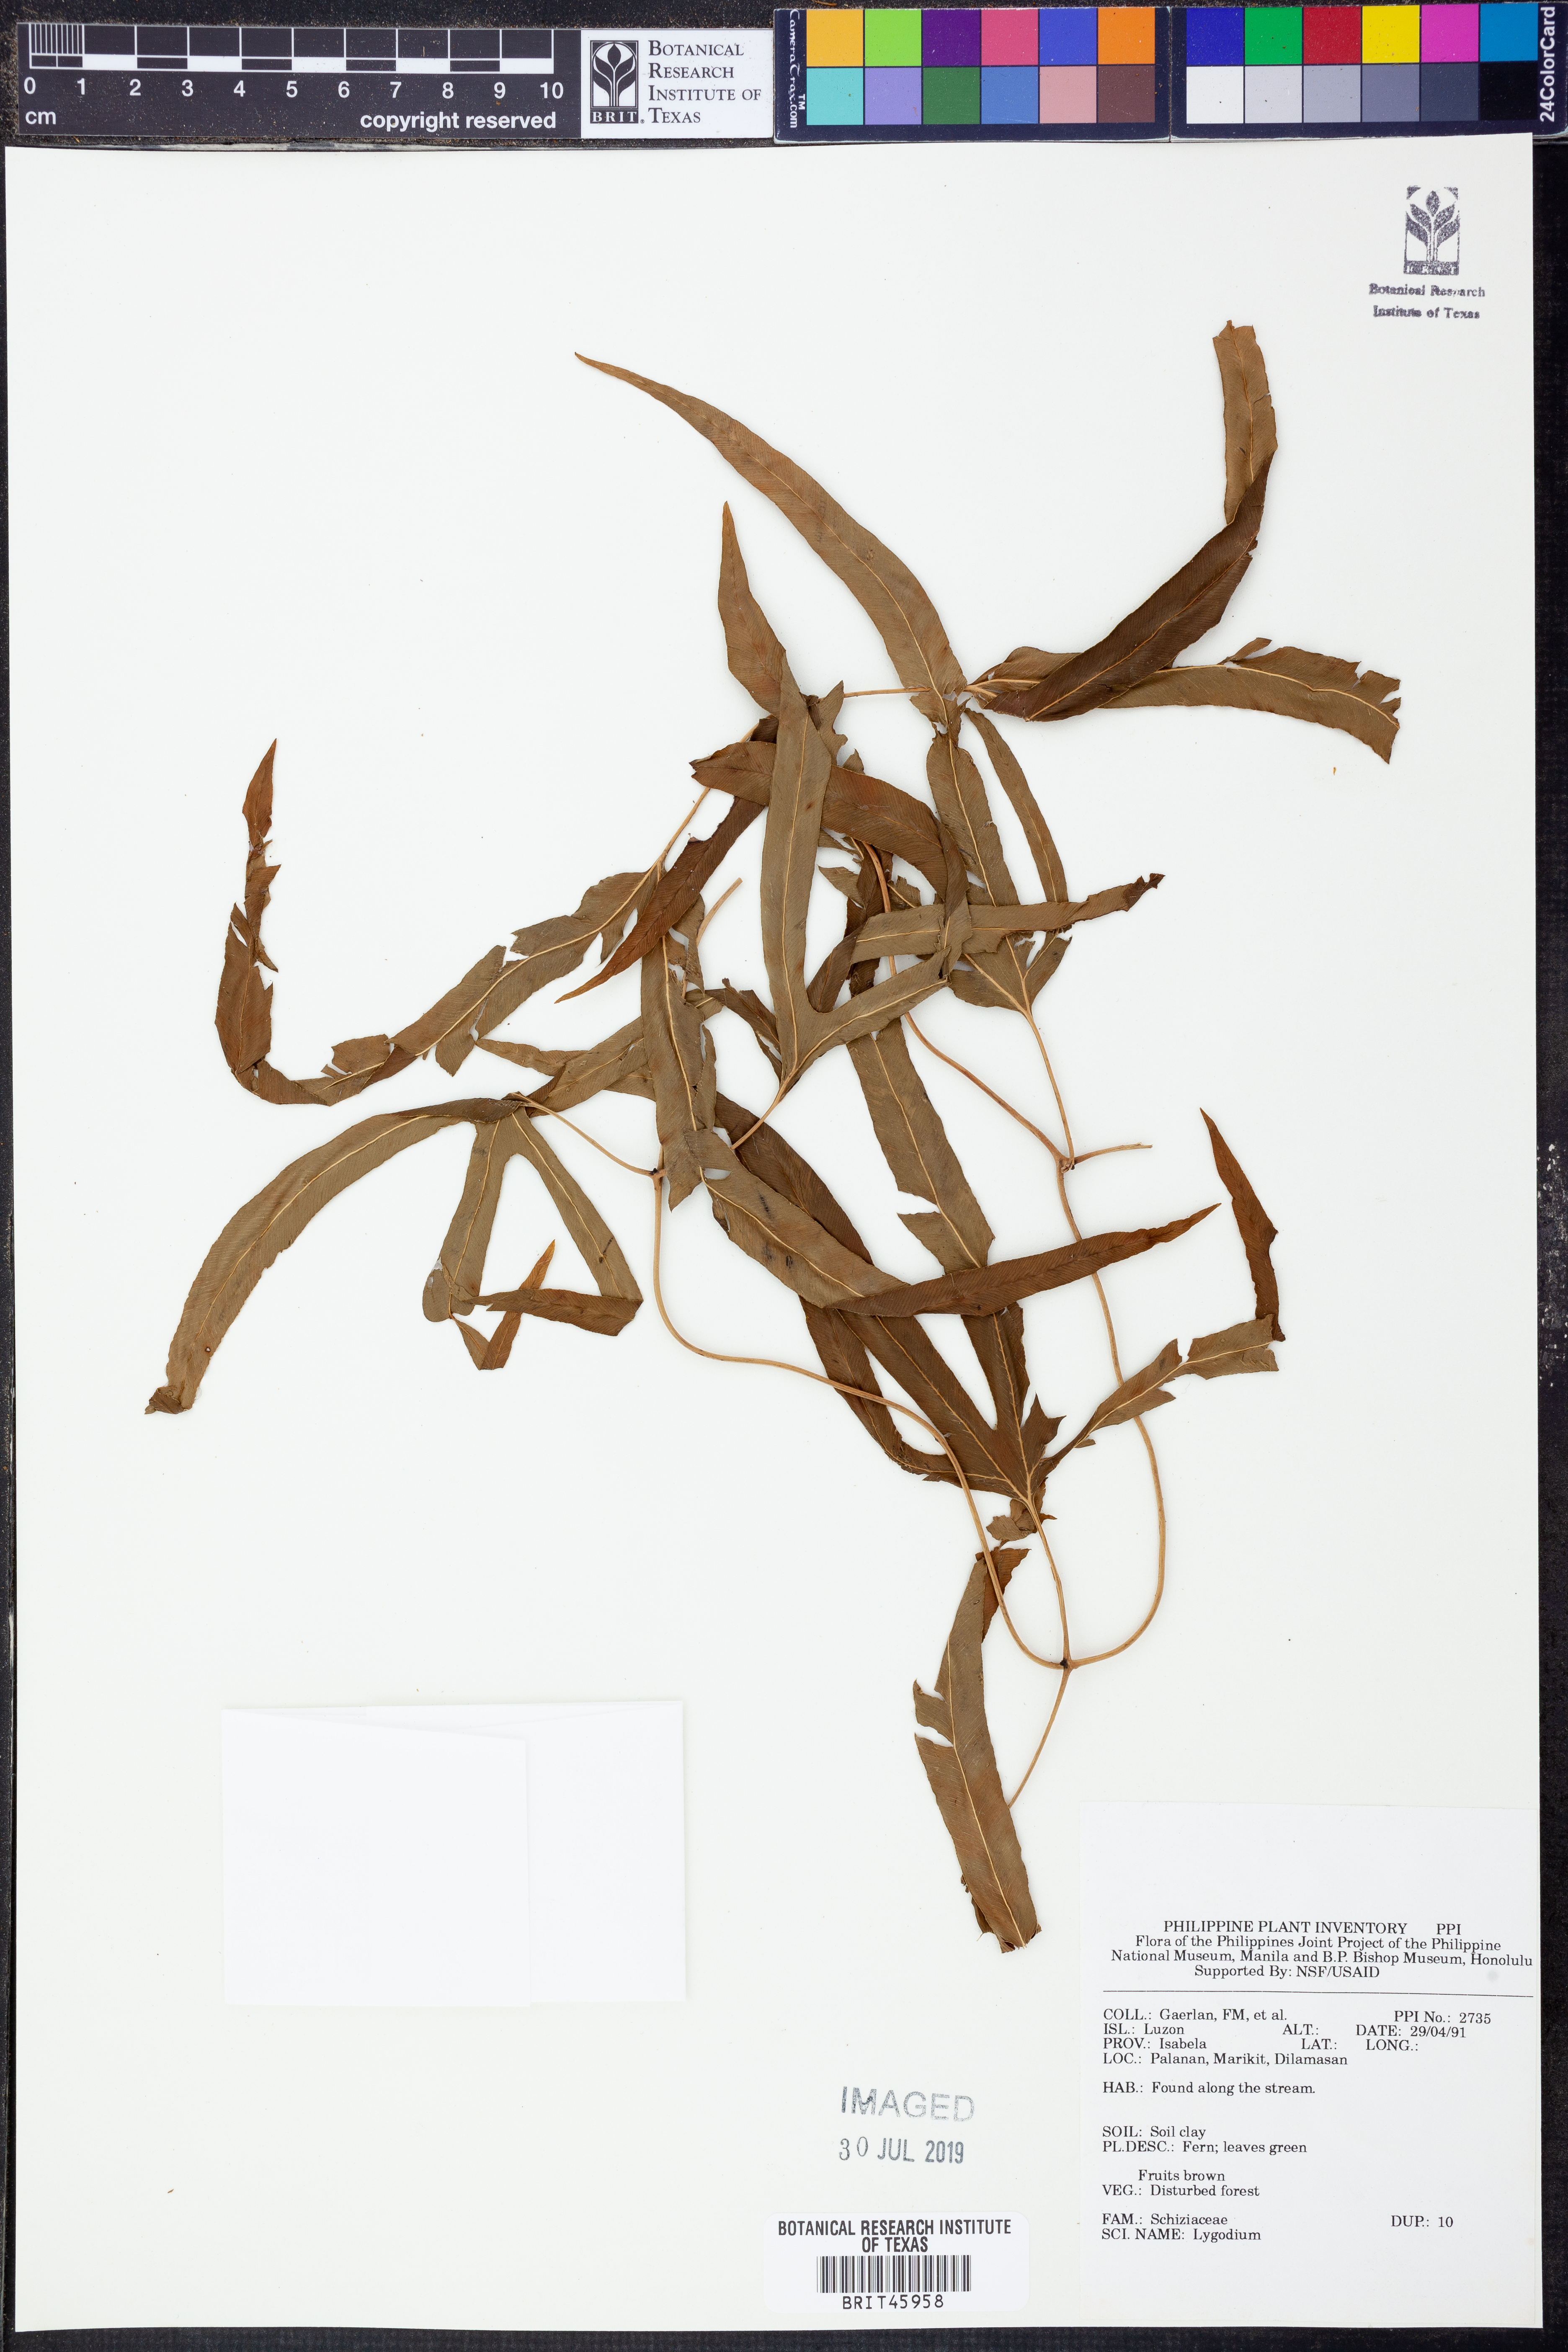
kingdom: Plantae
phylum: Tracheophyta
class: Polypodiopsida
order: Schizaeales
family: Lygodiaceae
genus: Lygodium
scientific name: Lygodium
